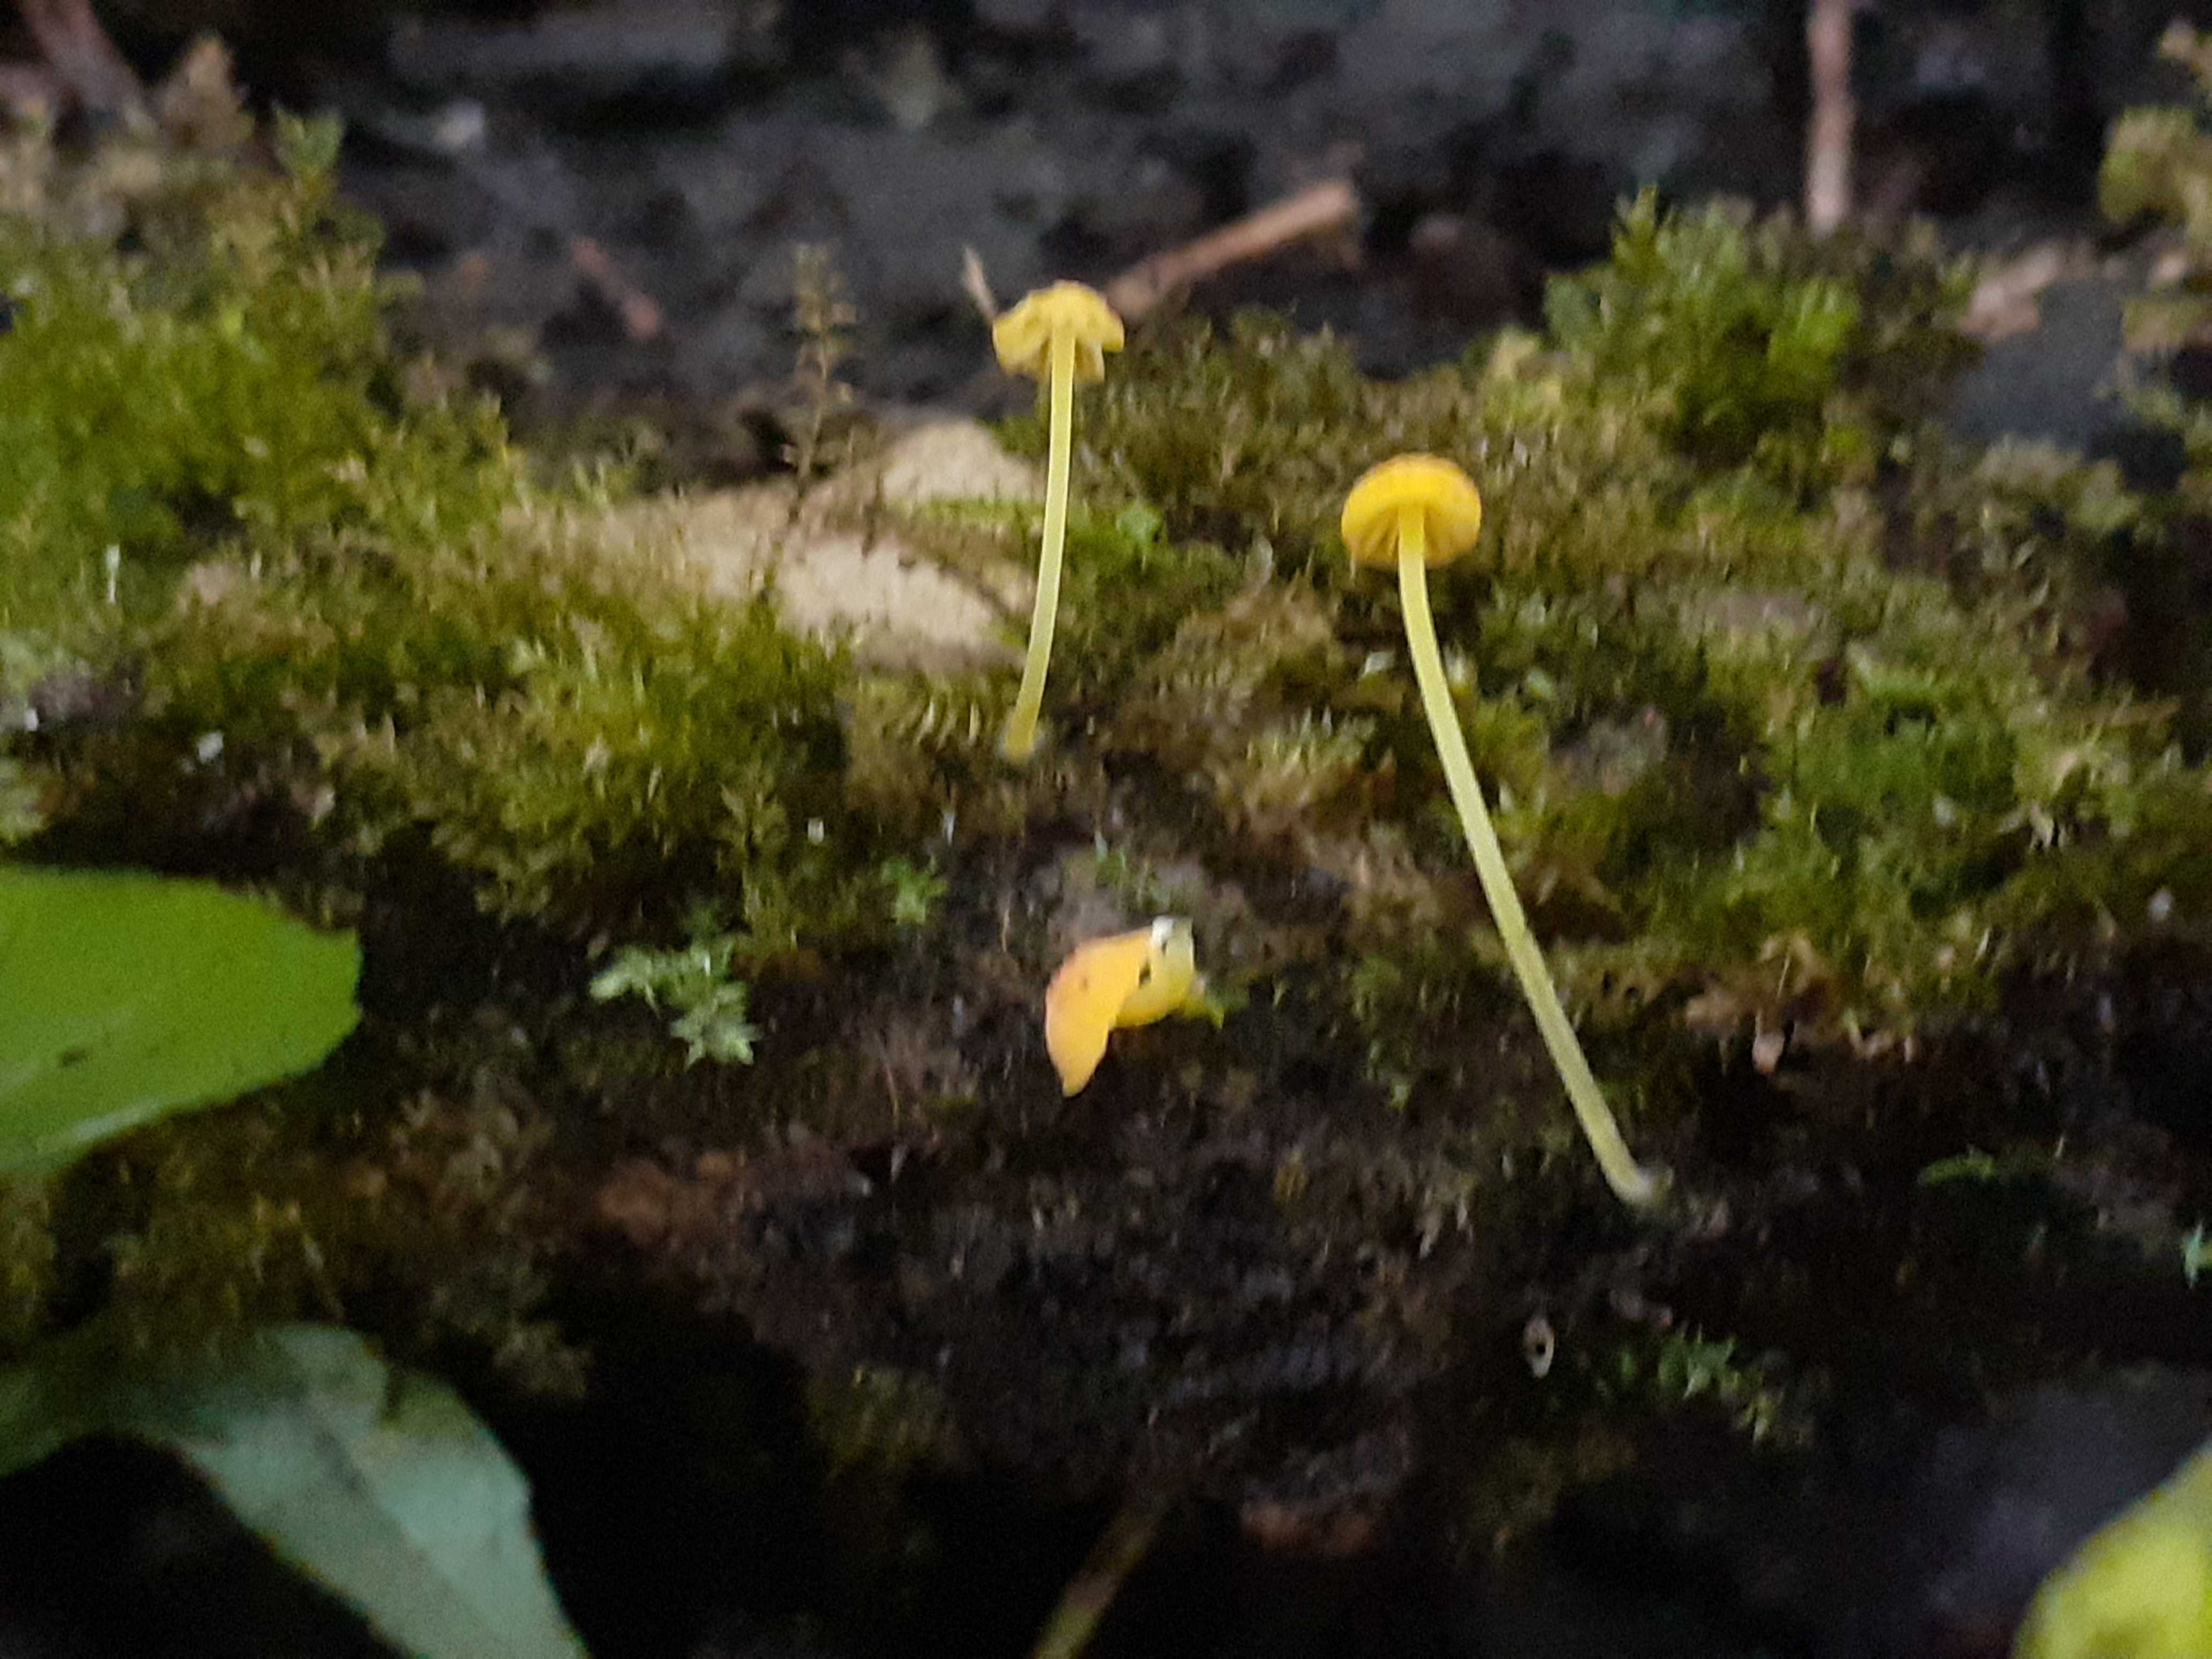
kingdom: Fungi
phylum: Basidiomycota
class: Agaricomycetes
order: Agaricales
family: Mycenaceae
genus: Mycena
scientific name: Mycena acicula
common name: orange huesvamp
